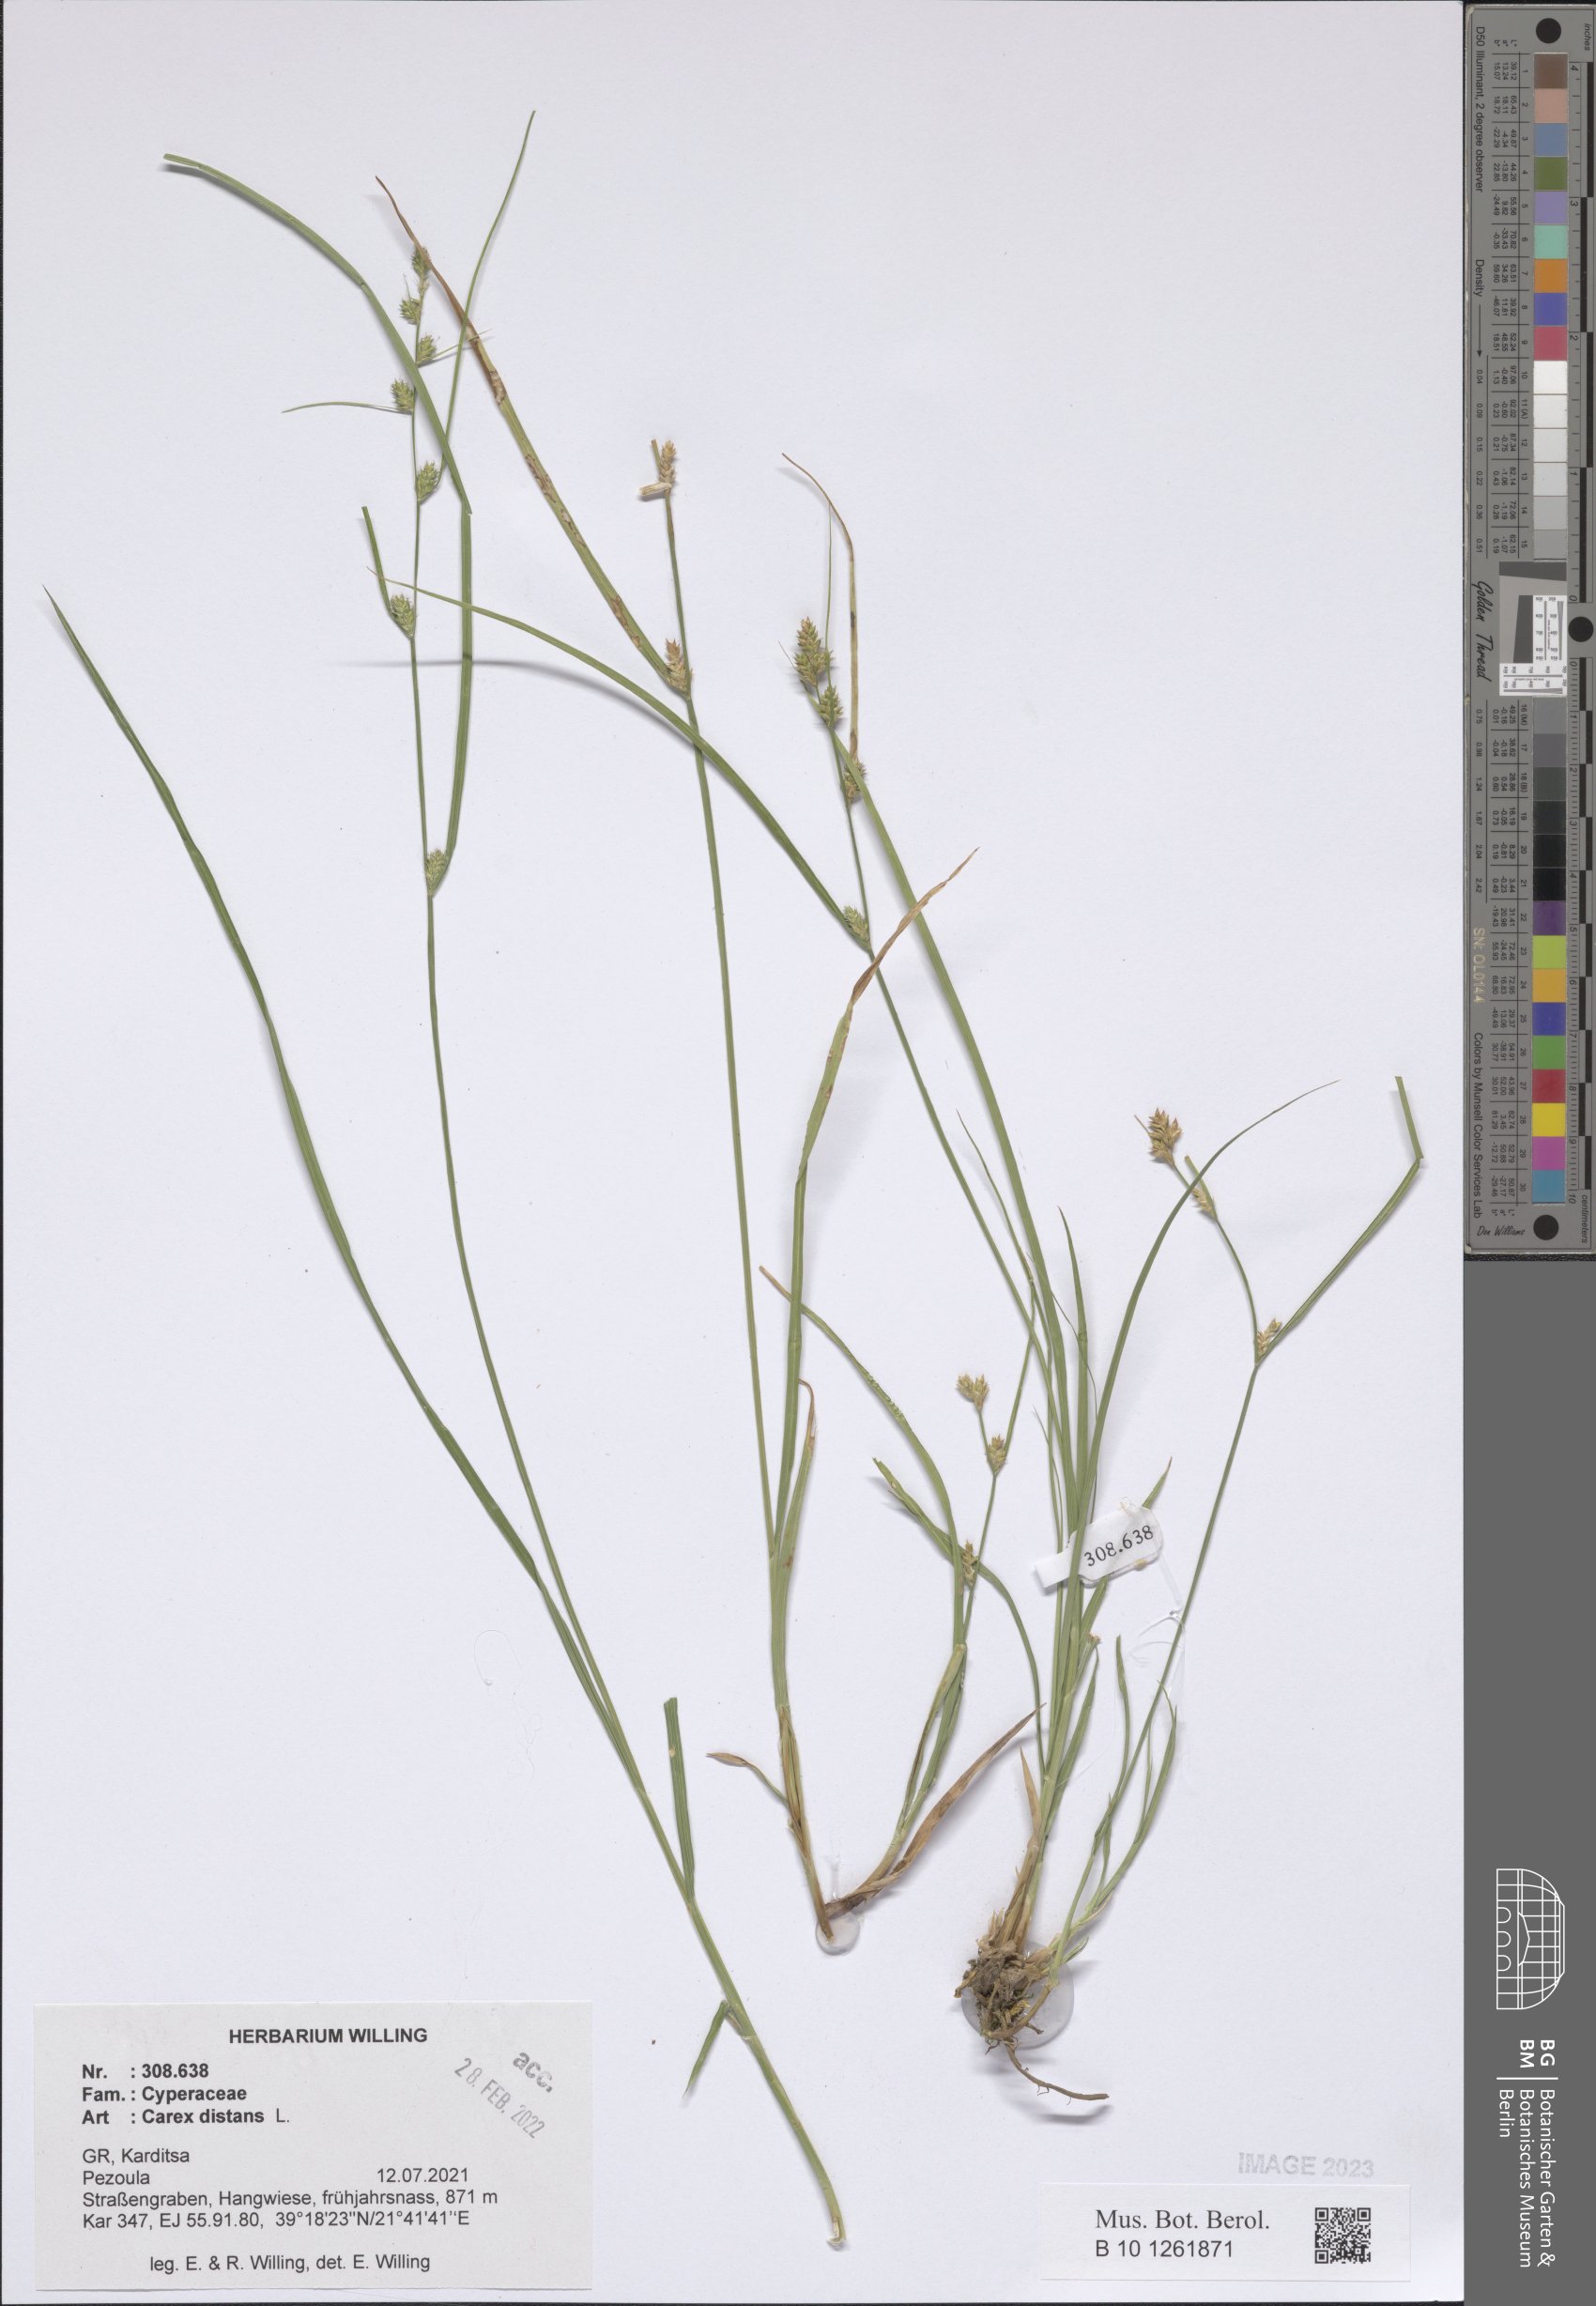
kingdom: Plantae
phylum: Tracheophyta
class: Liliopsida
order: Poales
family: Cyperaceae
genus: Carex
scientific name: Carex distans
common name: Distant sedge
